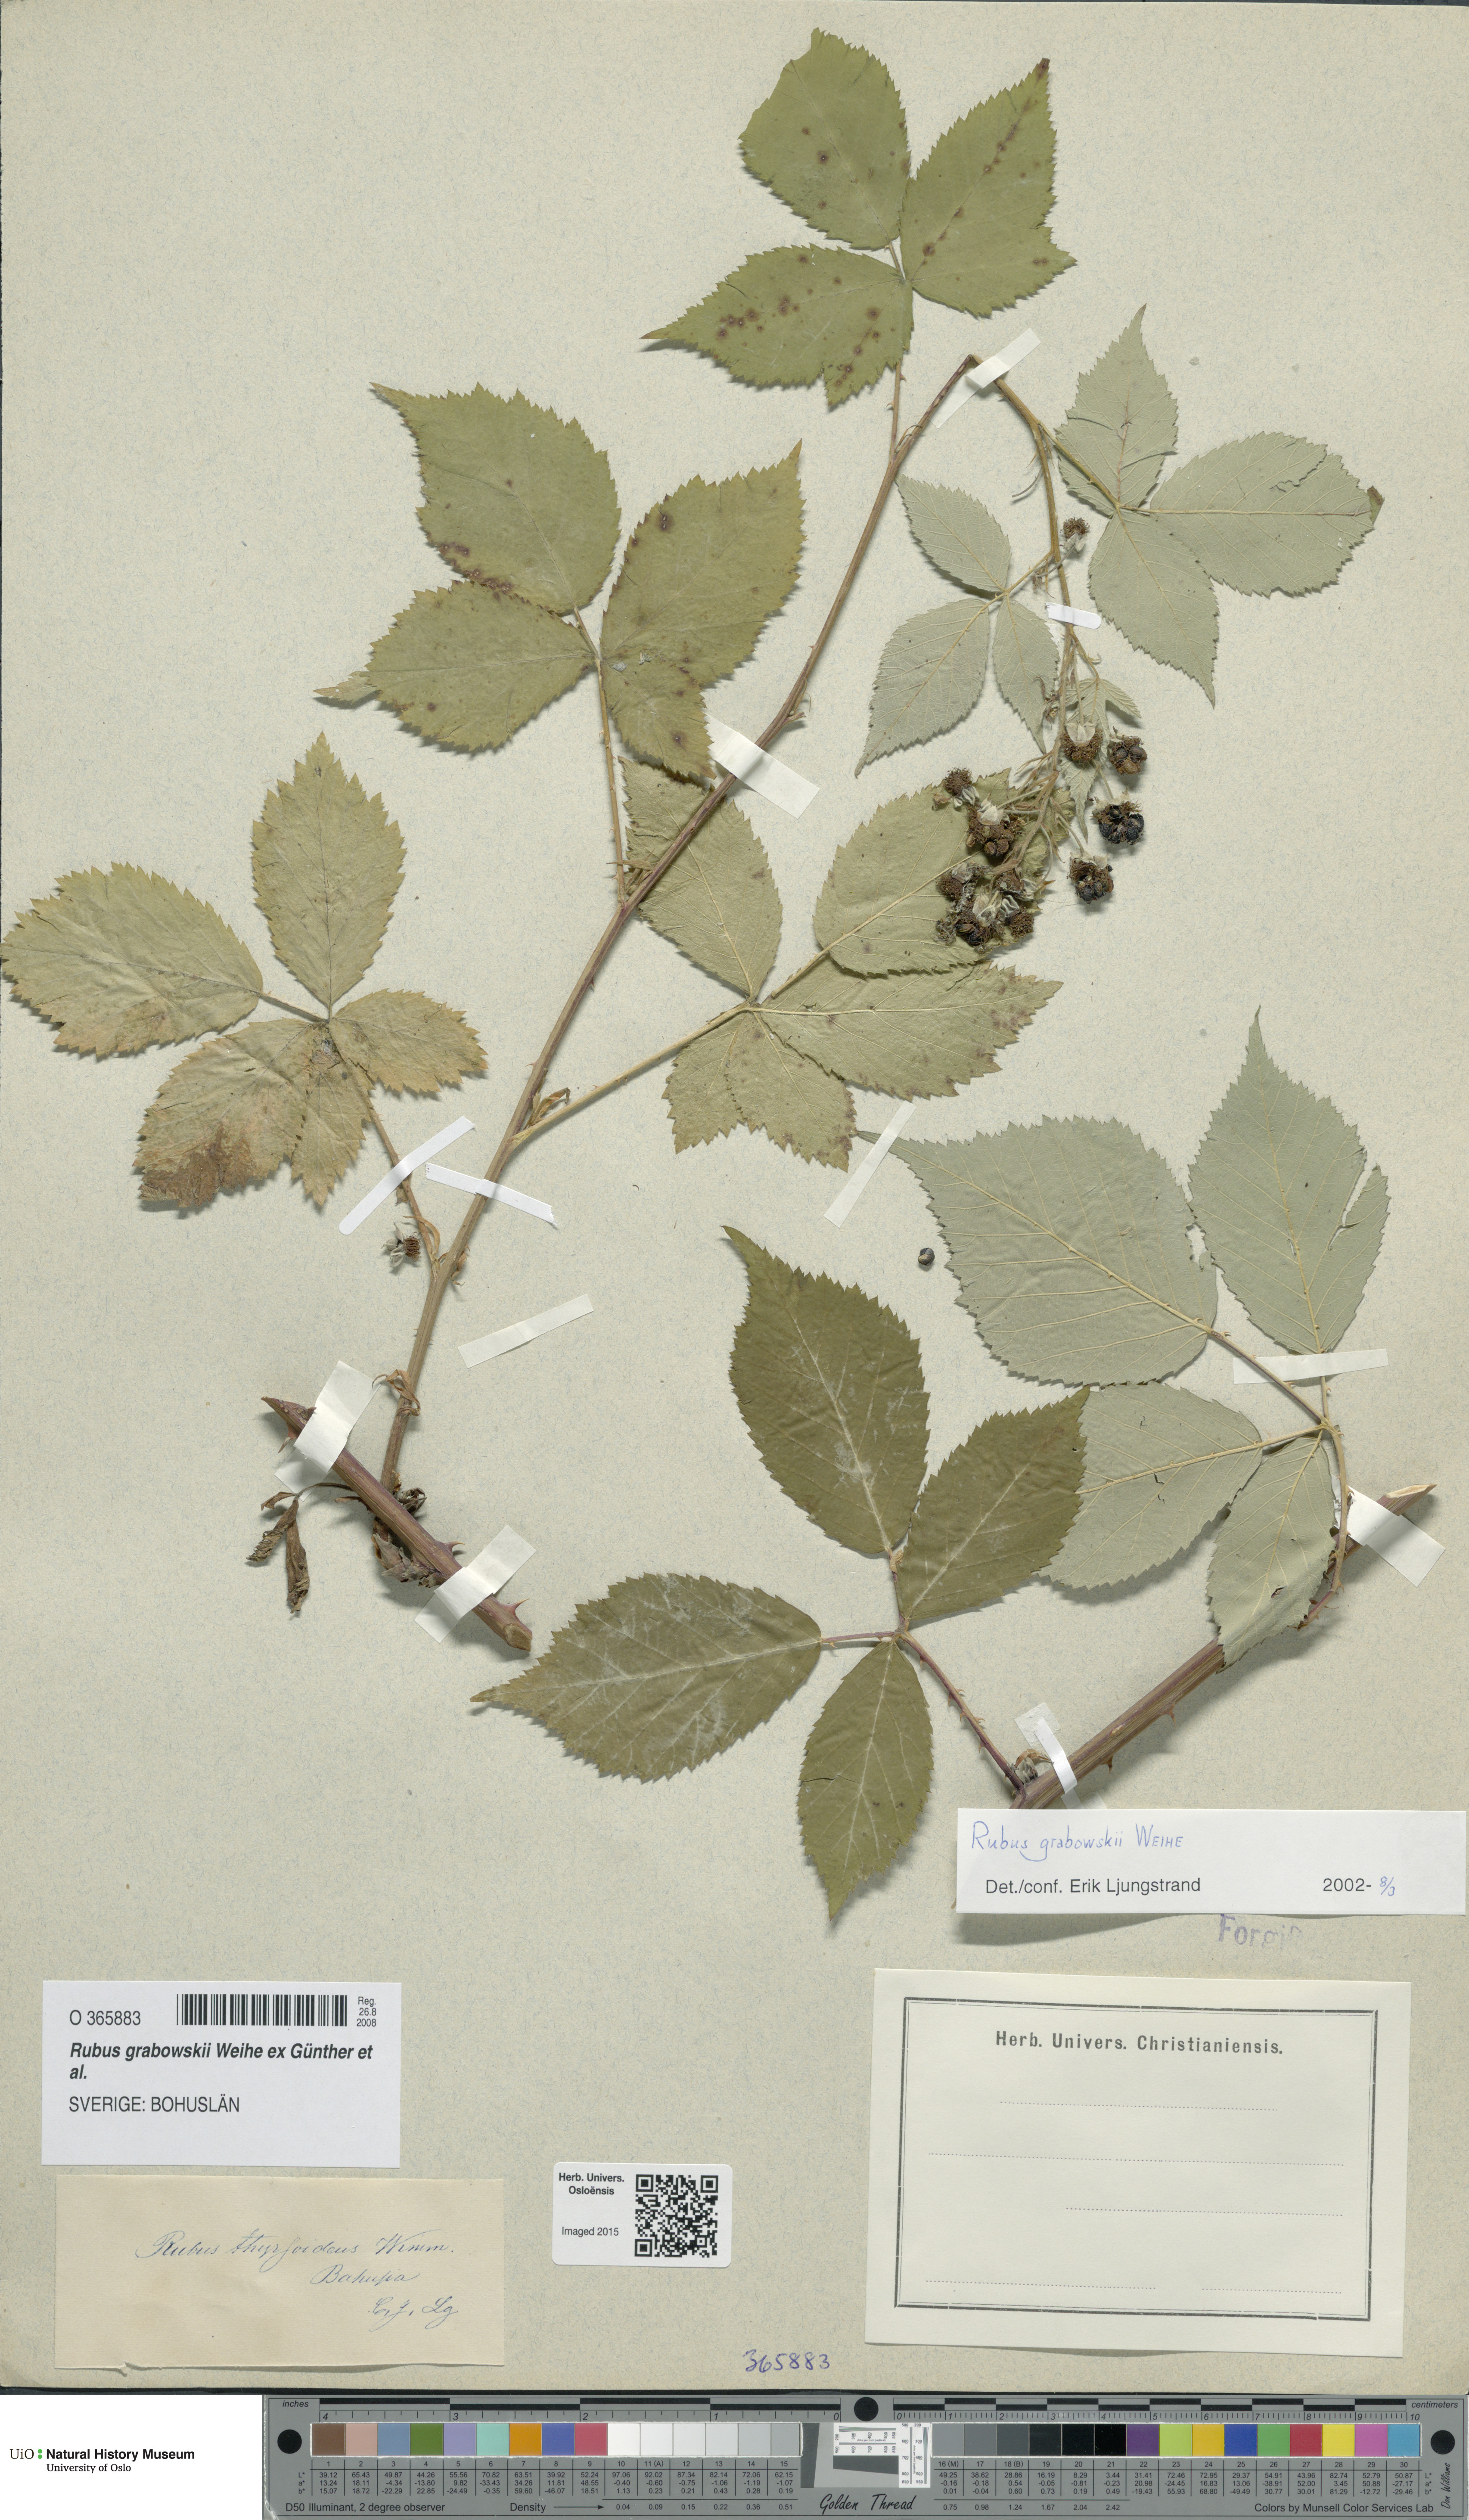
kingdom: Plantae
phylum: Tracheophyta
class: Magnoliopsida
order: Rosales
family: Rosaceae
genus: Rubus
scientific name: Rubus grabowskii
